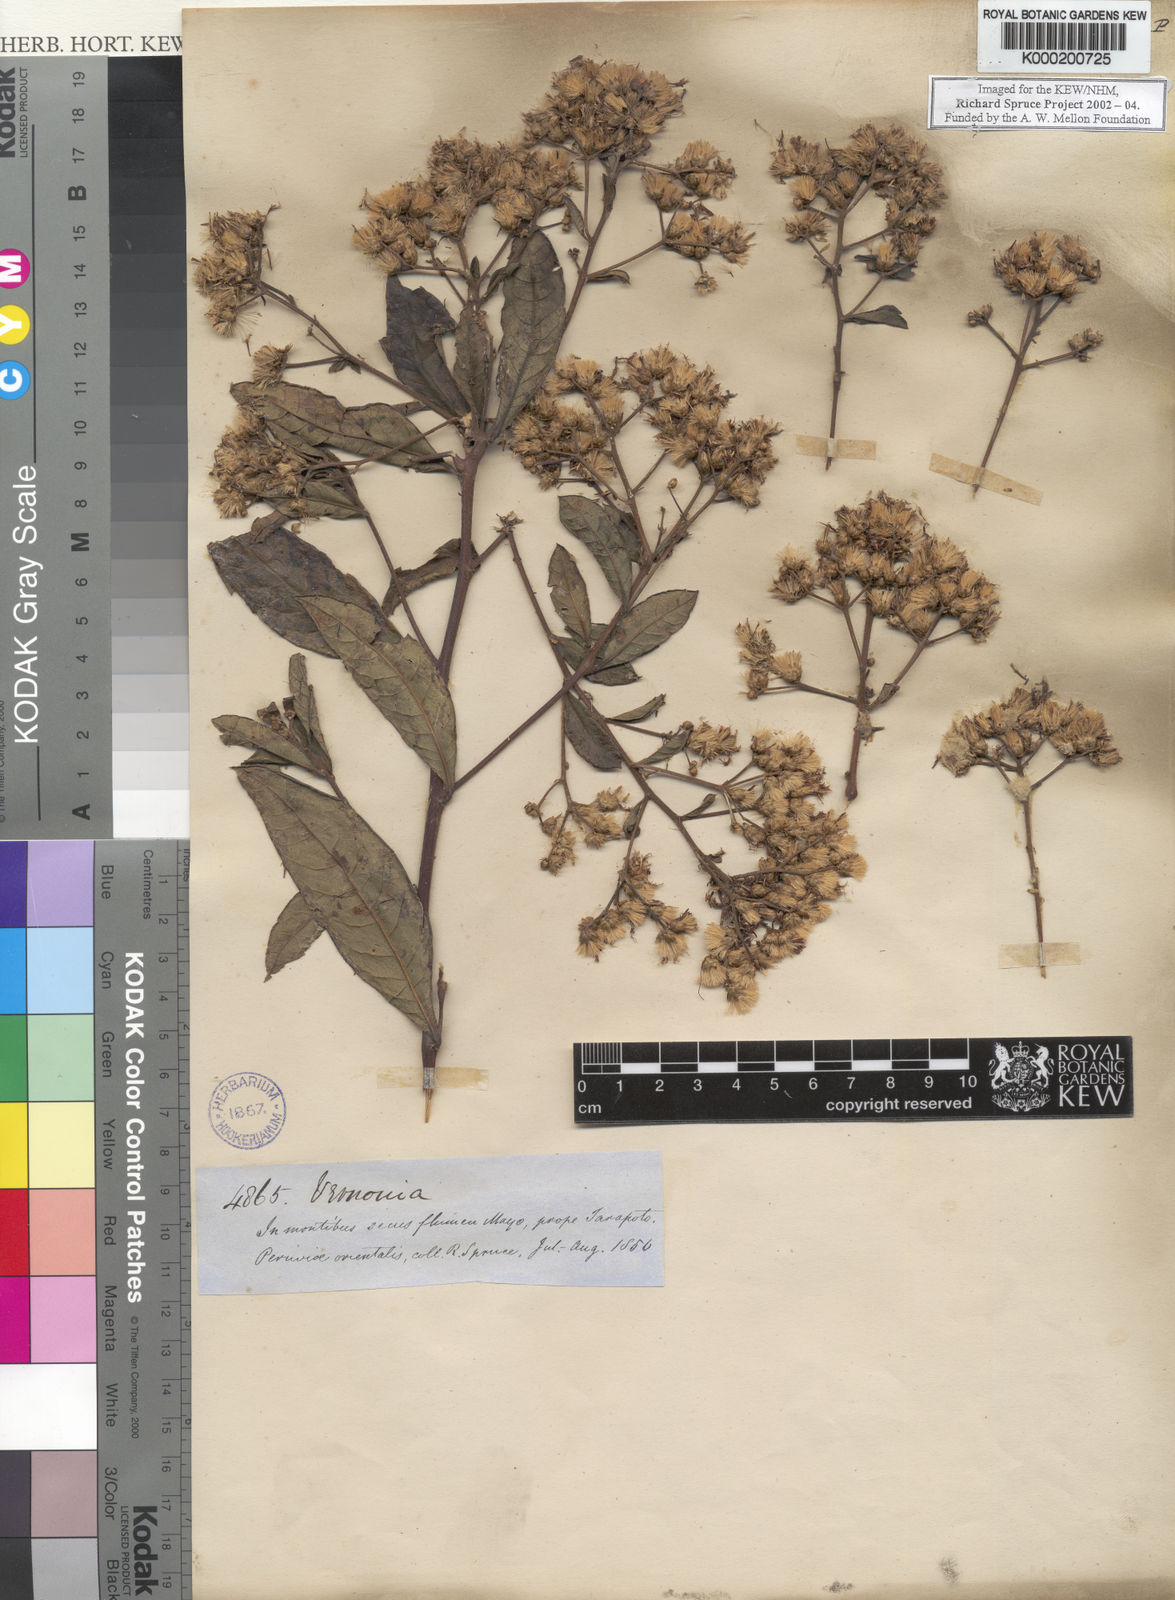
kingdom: Plantae
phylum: Tracheophyta
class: Magnoliopsida
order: Asterales
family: Asteraceae
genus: Vernonia
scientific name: Vernonia
